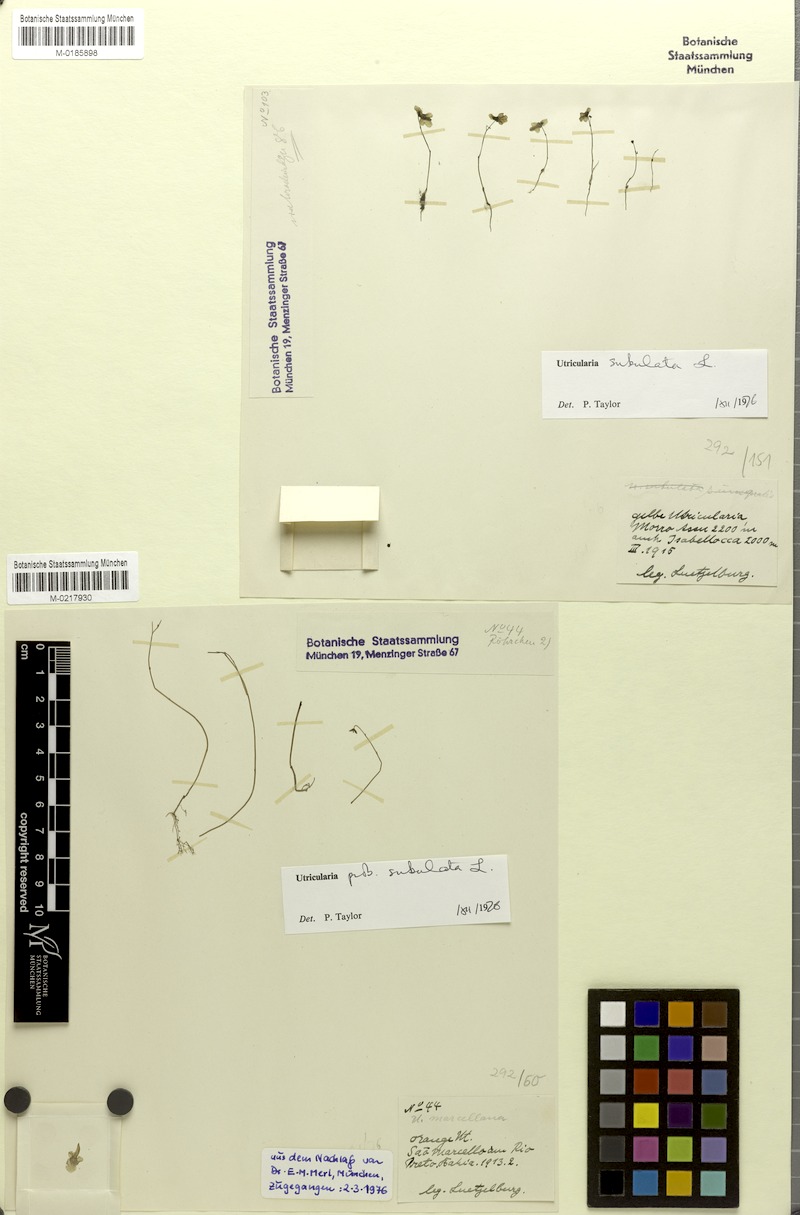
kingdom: Plantae
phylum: Tracheophyta
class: Magnoliopsida
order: Lamiales
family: Lentibulariaceae
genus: Utricularia
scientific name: Utricularia subulata
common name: Tiny bladderwort
